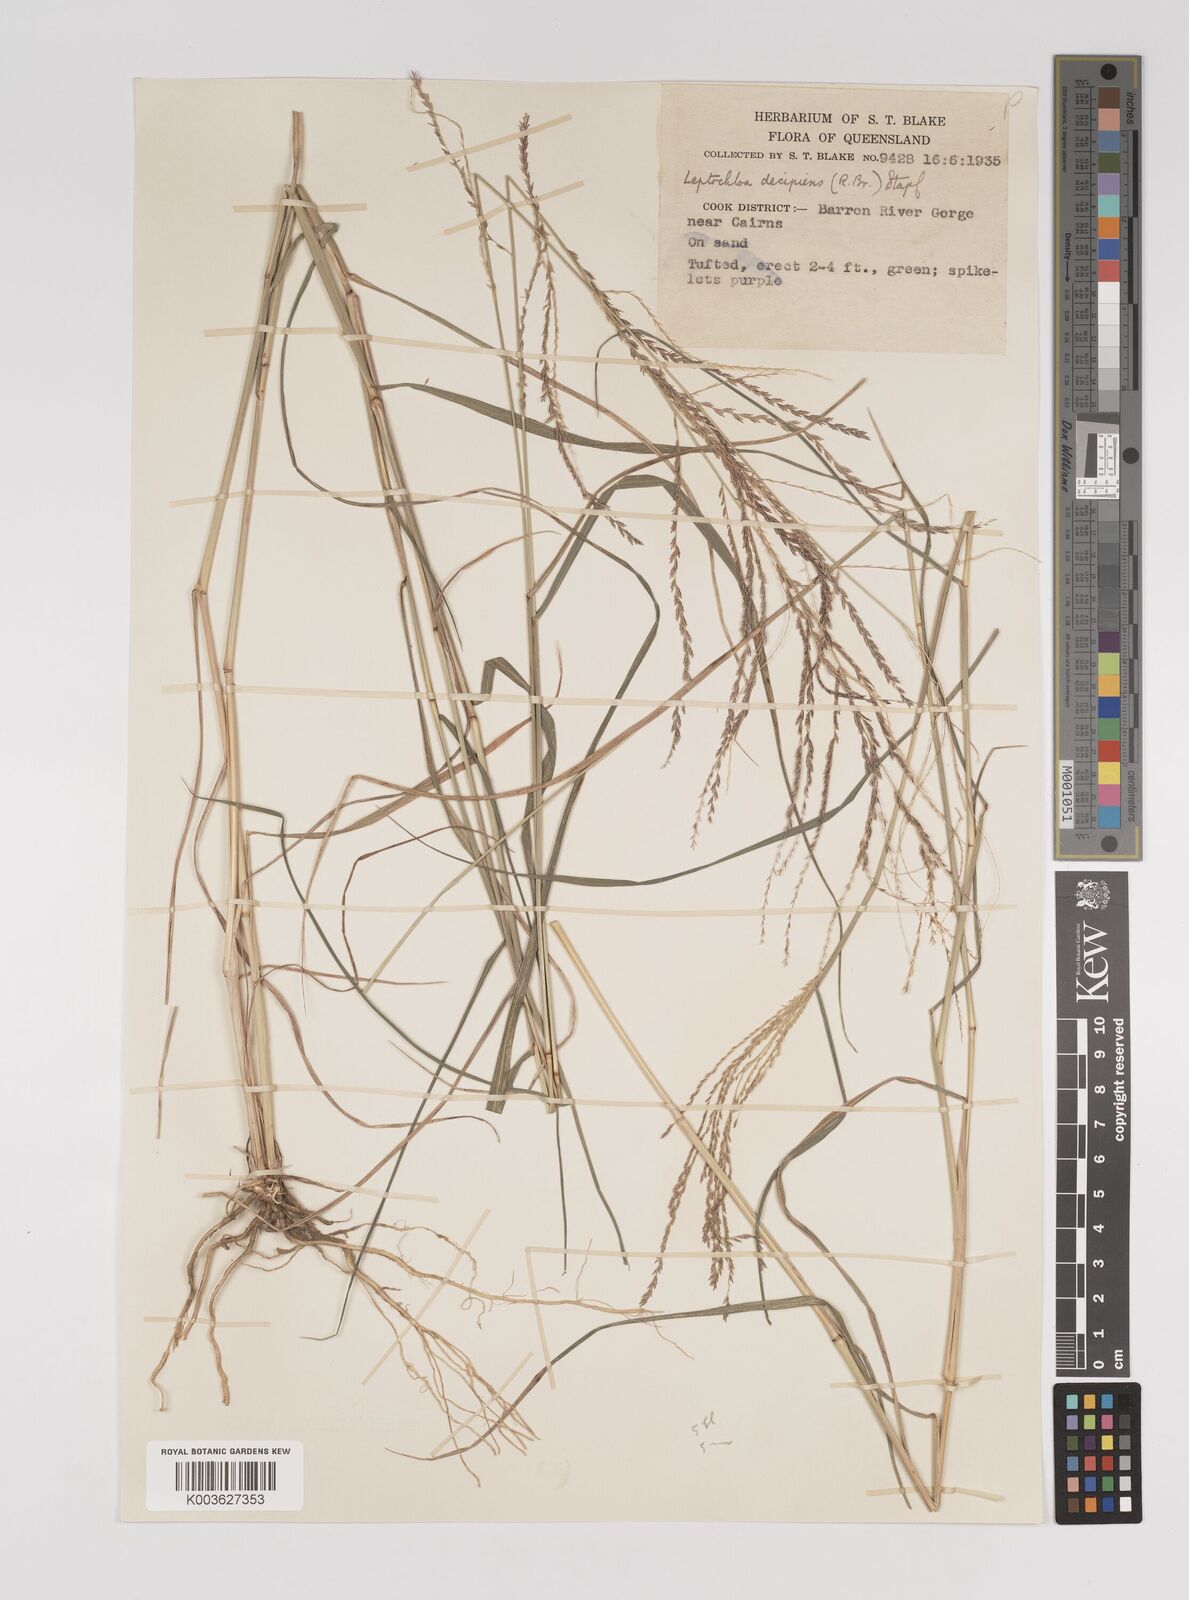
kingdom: Plantae
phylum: Tracheophyta
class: Liliopsida
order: Poales
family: Poaceae
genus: Leptochloa
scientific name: Leptochloa decipiens
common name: Australian sprangletop
